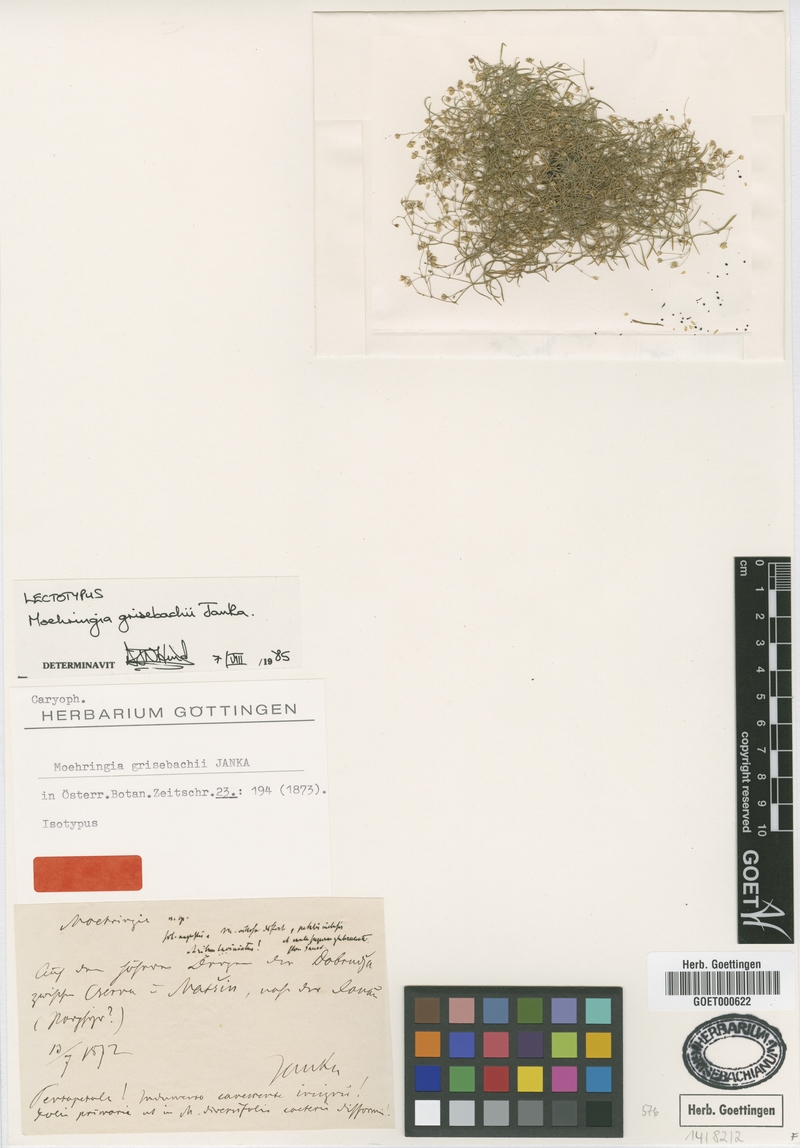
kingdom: Plantae
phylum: Tracheophyta
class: Magnoliopsida
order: Caryophyllales
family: Caryophyllaceae
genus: Moehringia
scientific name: Moehringia grisebachii
